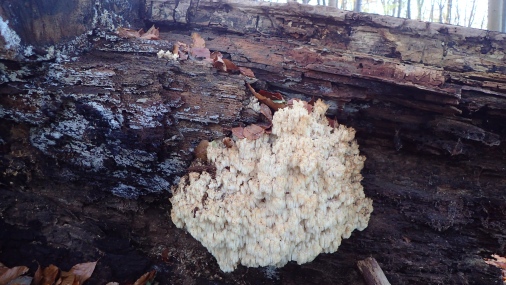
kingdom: Fungi
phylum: Basidiomycota
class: Agaricomycetes
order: Russulales
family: Hericiaceae
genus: Hericium
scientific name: Hericium coralloides
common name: koralpigsvamp
